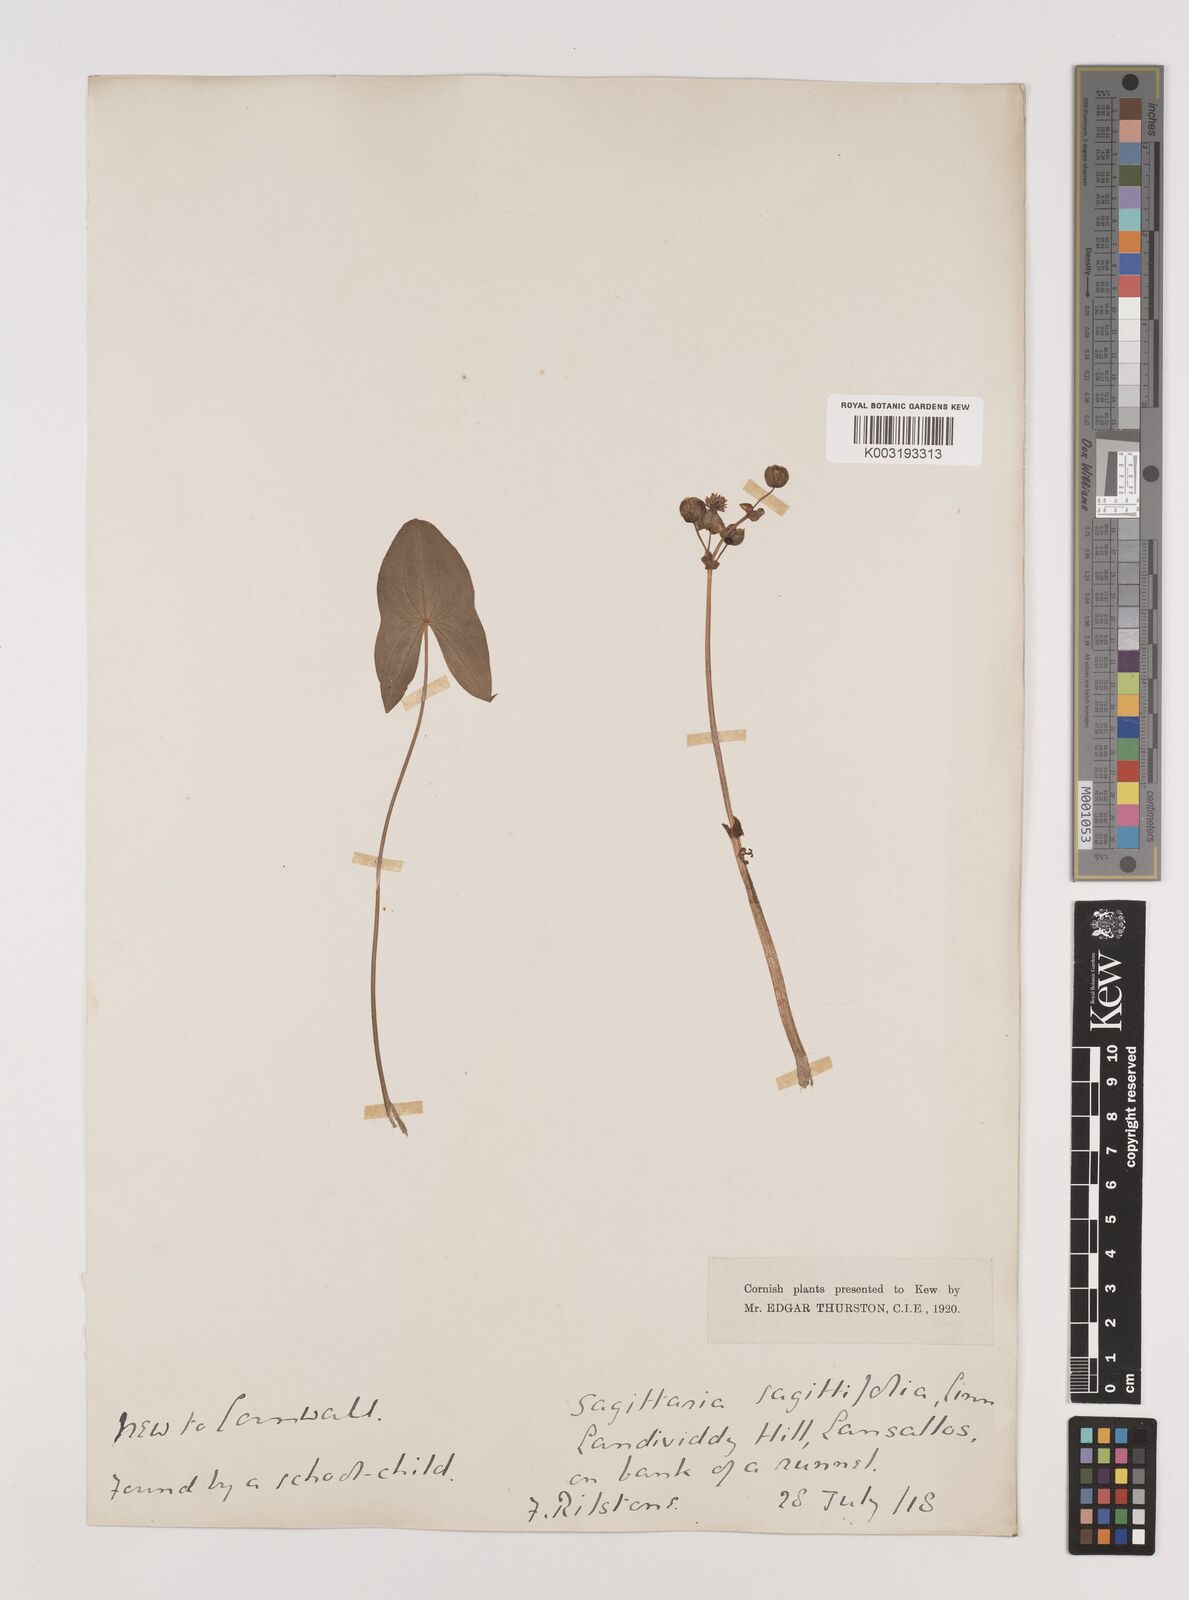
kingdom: Plantae
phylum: Tracheophyta
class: Liliopsida
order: Alismatales
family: Alismataceae
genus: Sagittaria
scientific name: Sagittaria sagittifolia
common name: Arrowhead
